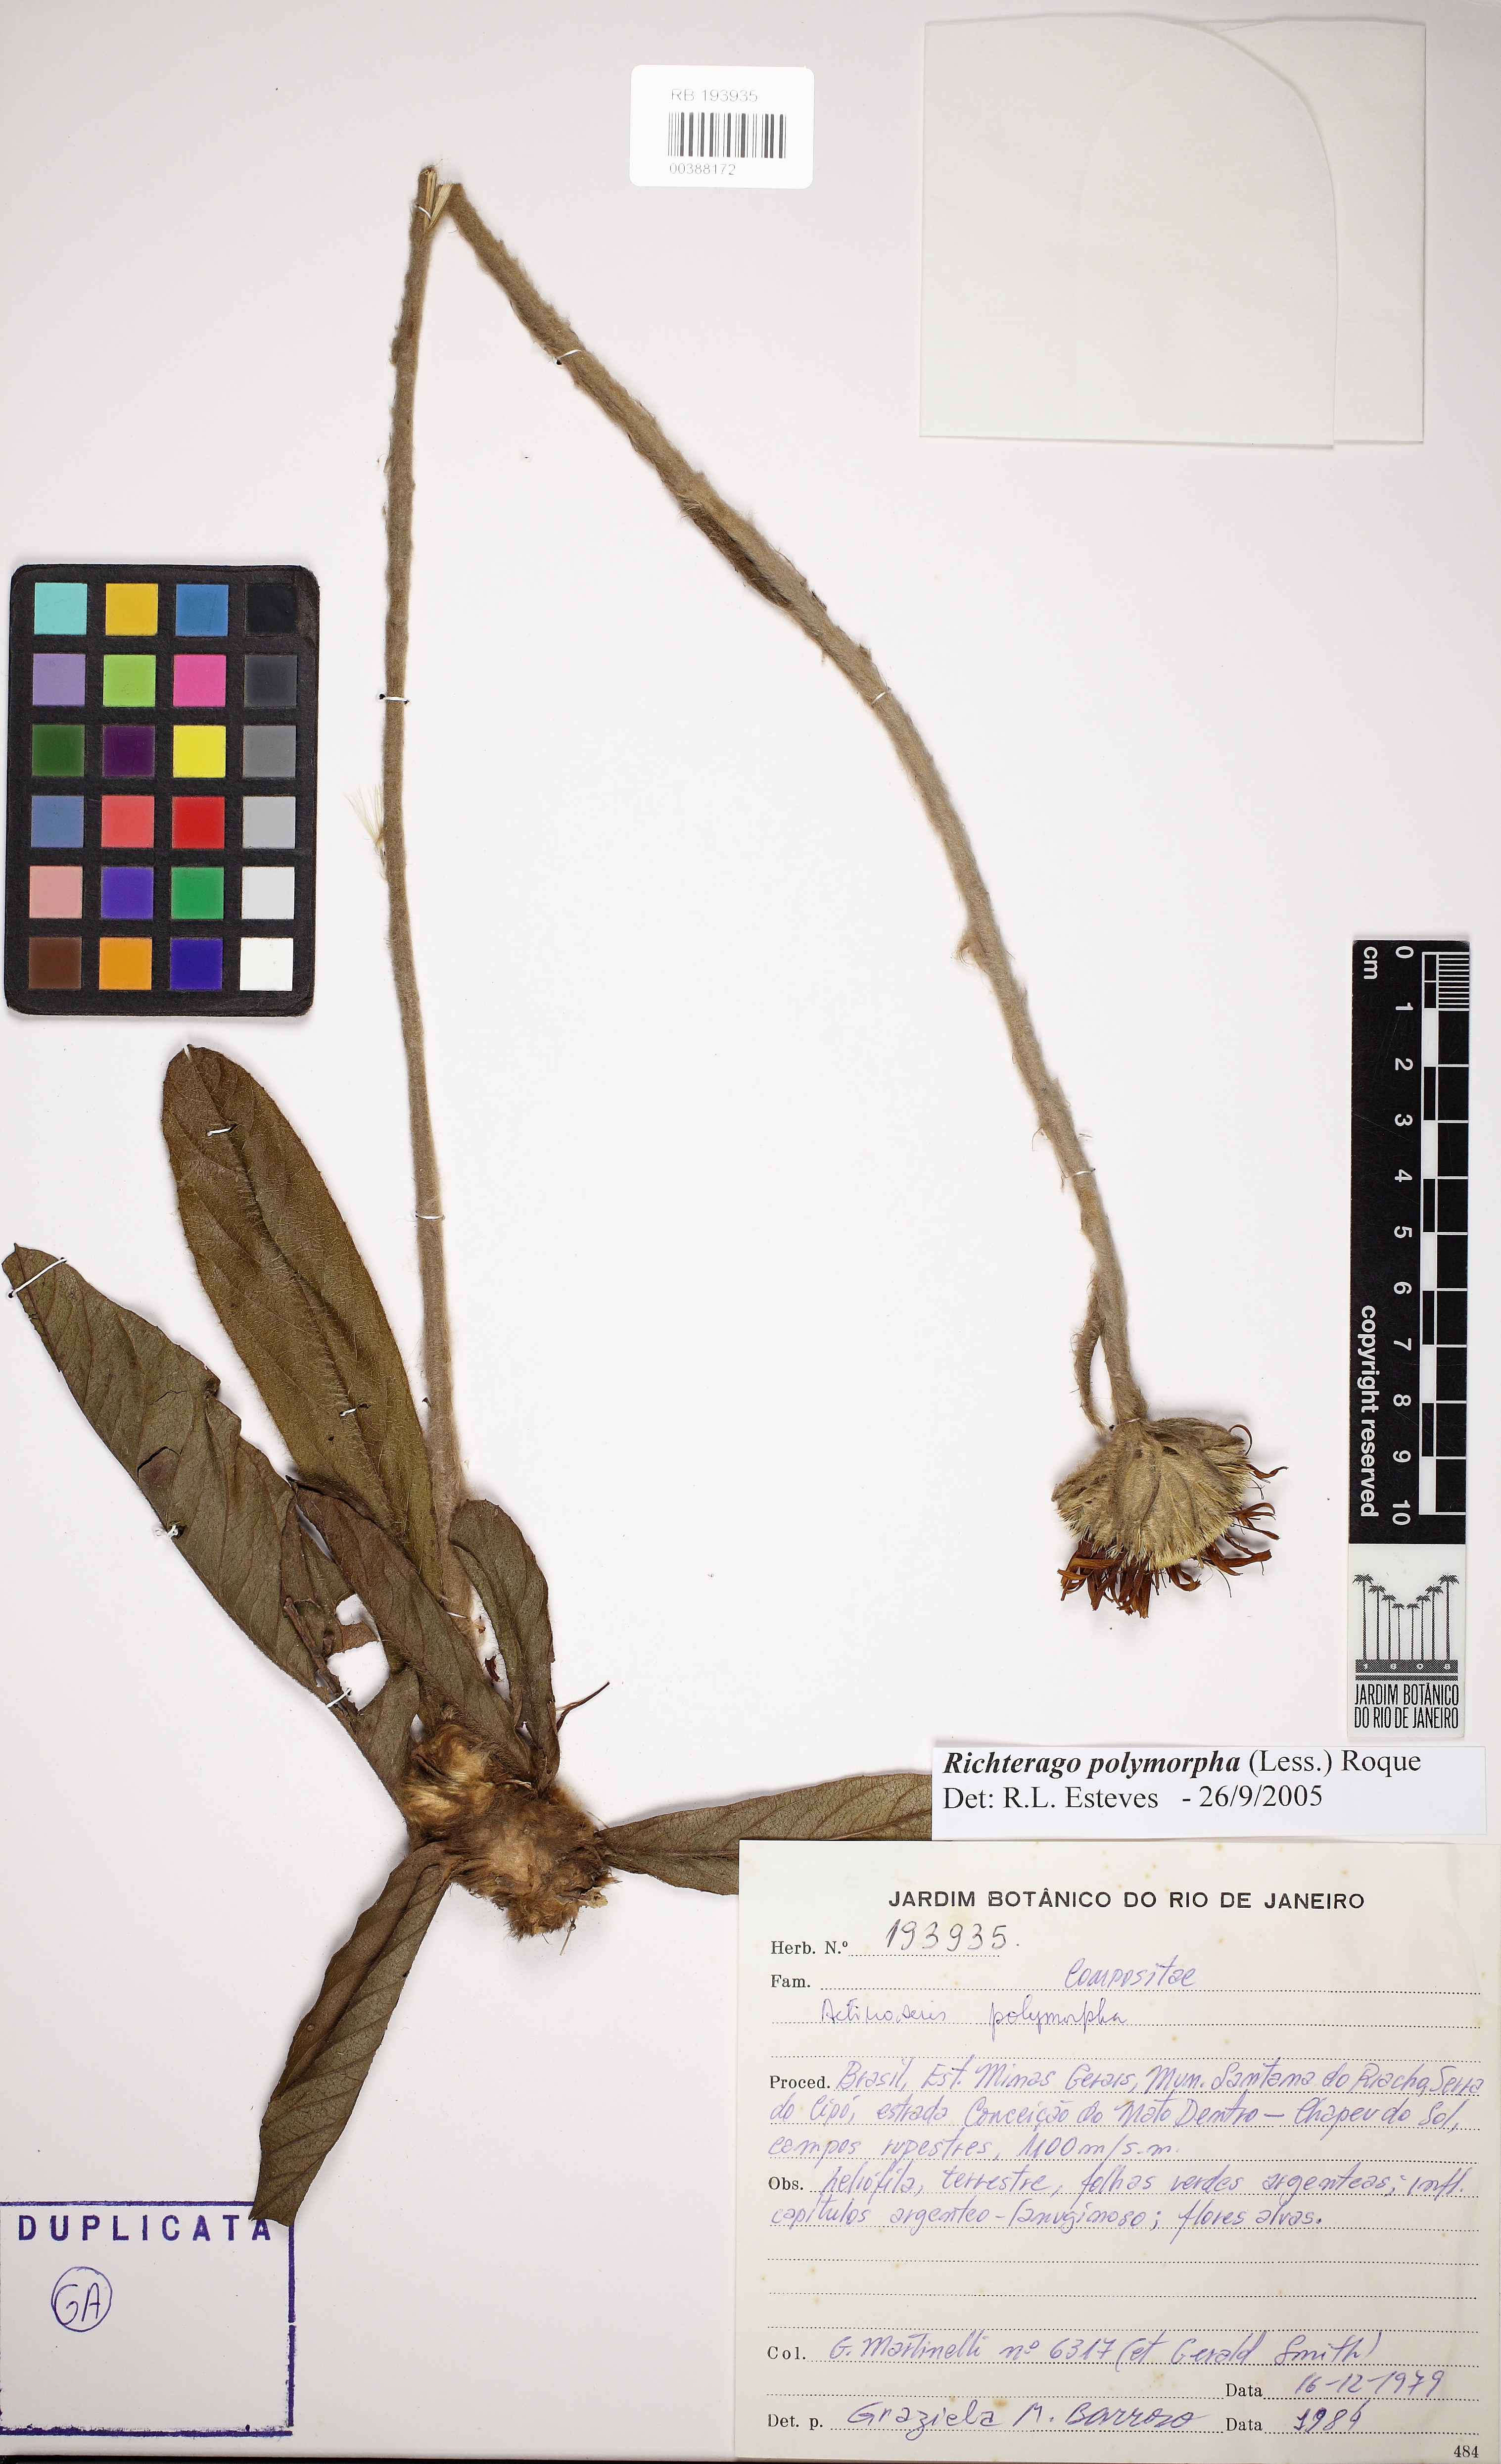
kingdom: Plantae
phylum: Tracheophyta
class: Magnoliopsida
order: Asterales
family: Asteraceae
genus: Richterago
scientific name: Richterago polymorpha
